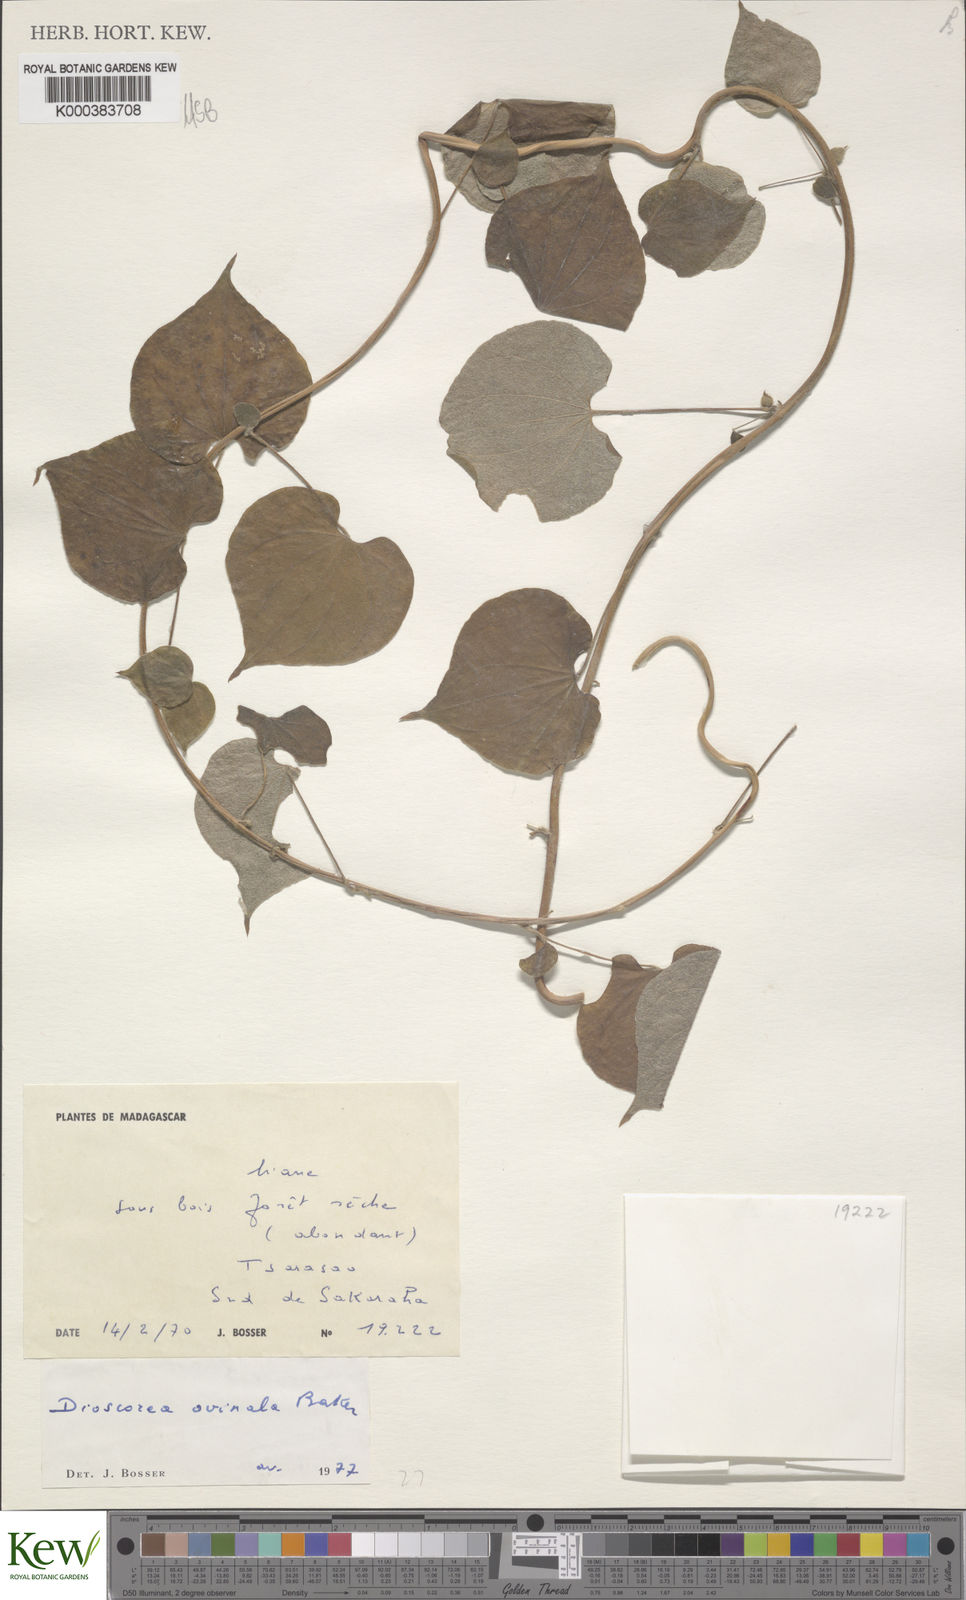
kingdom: Plantae
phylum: Tracheophyta
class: Liliopsida
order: Dioscoreales
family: Dioscoreaceae
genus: Dioscorea
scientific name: Dioscorea ovinala
